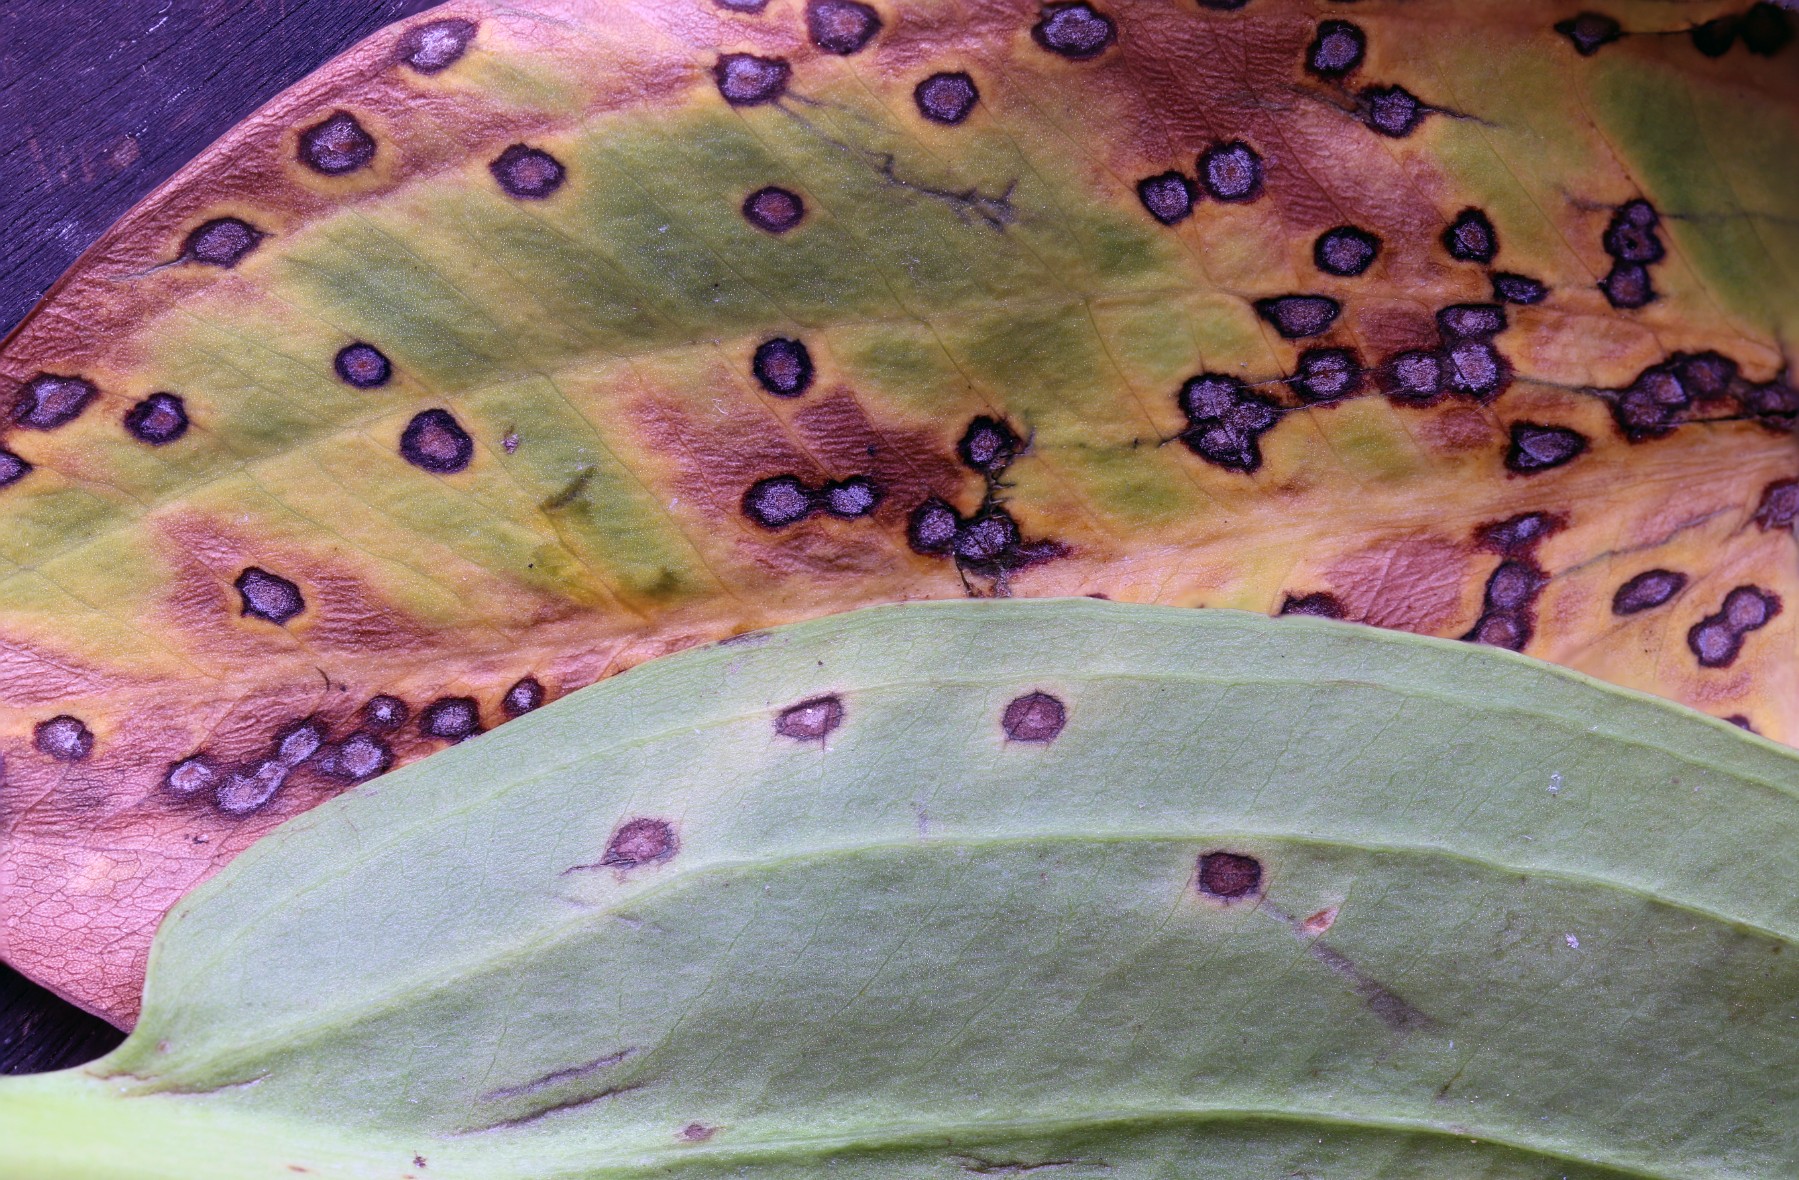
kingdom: Fungi
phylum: Ascomycota
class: Sordariomycetes
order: Glomerellales
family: Plectosphaerellaceae
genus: Plectosphaerella
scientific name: Plectosphaerella alismatis
